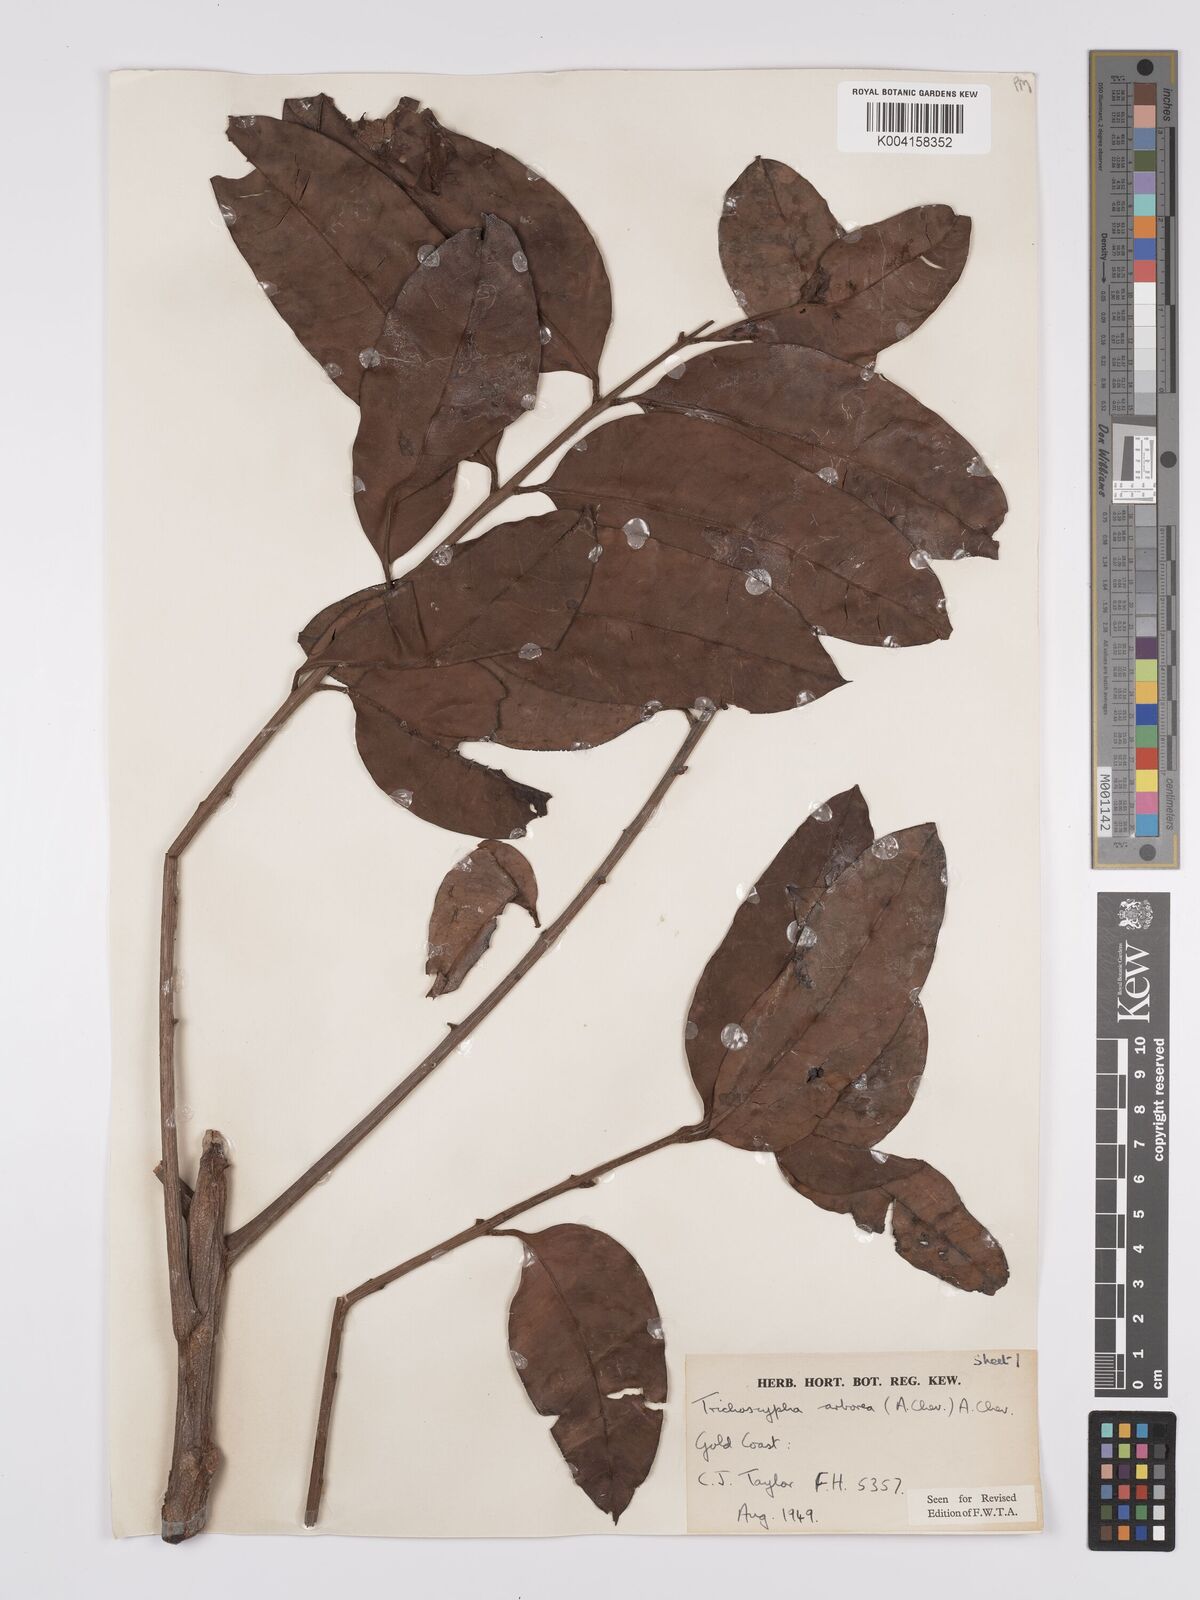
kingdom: Plantae
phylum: Tracheophyta
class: Magnoliopsida
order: Sapindales
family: Anacardiaceae
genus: Trichoscypha
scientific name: Trichoscypha arborea
